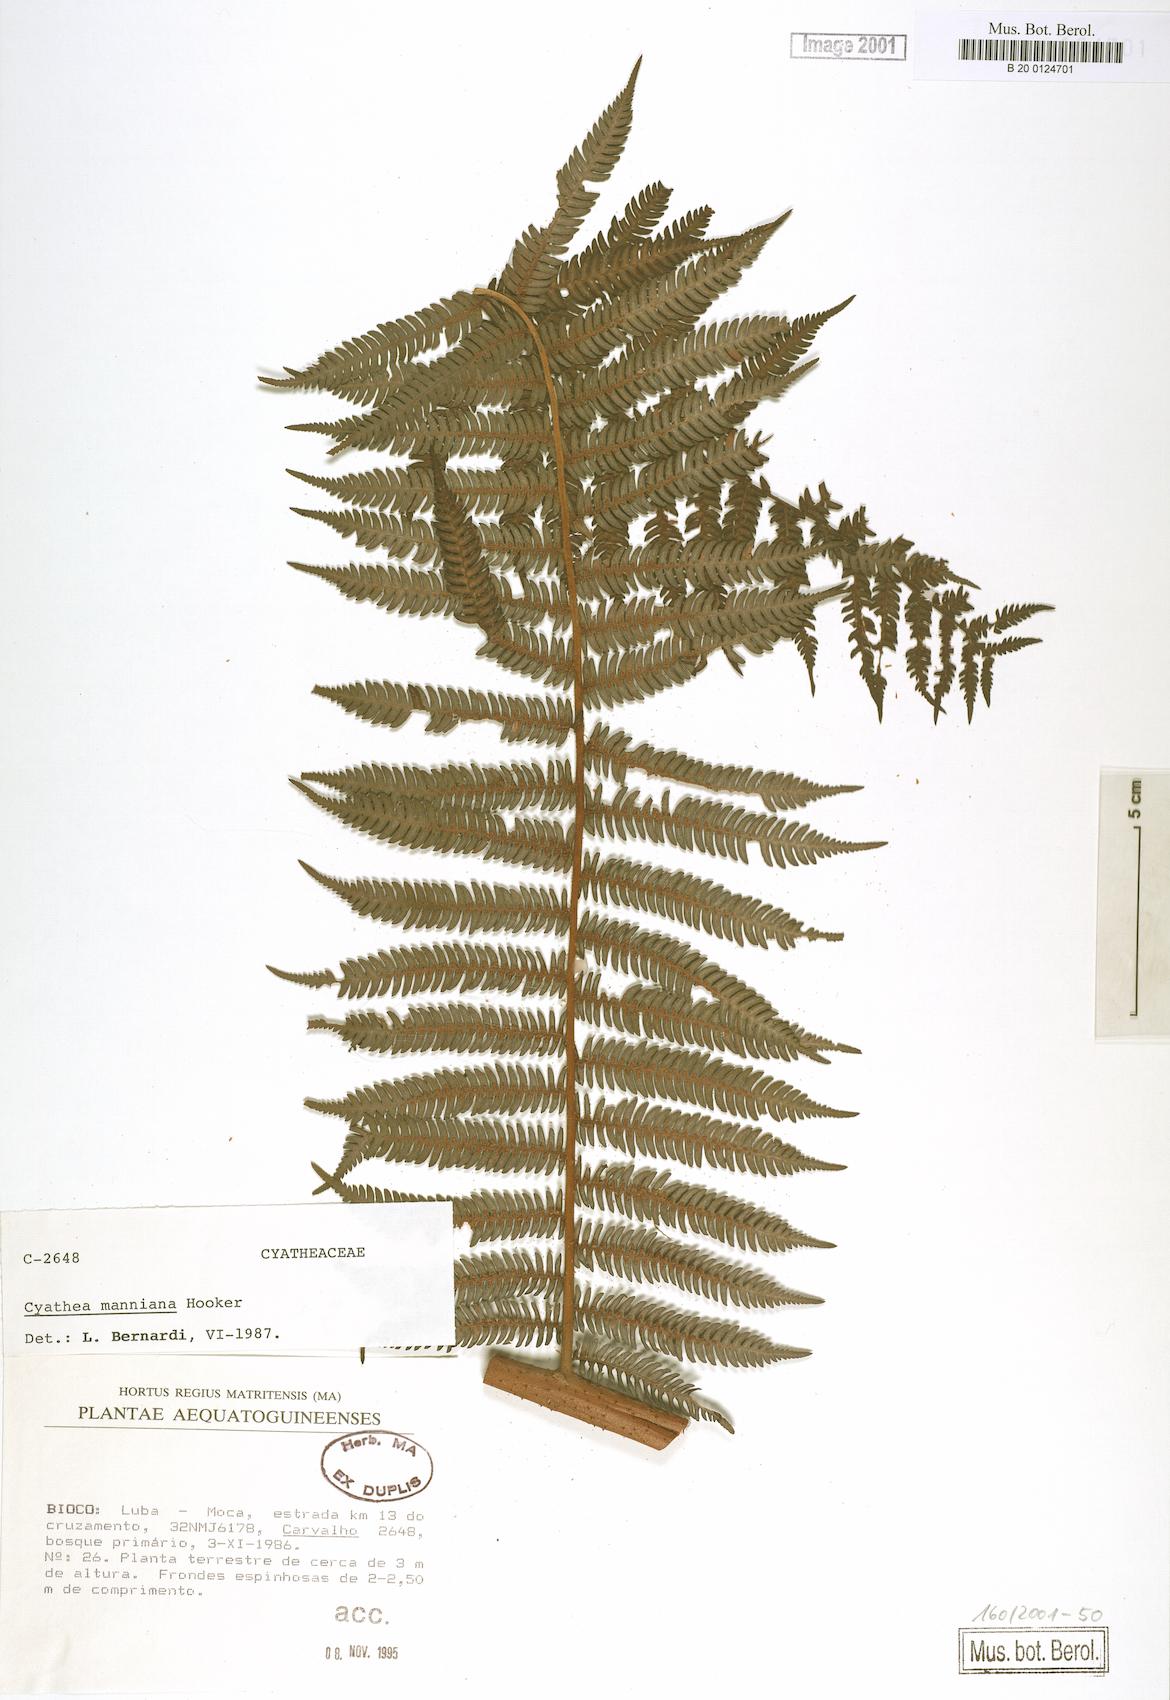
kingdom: Plantae
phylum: Tracheophyta
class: Polypodiopsida
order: Cyatheales
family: Cyatheaceae
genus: Alsophila
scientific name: Alsophila manniana
